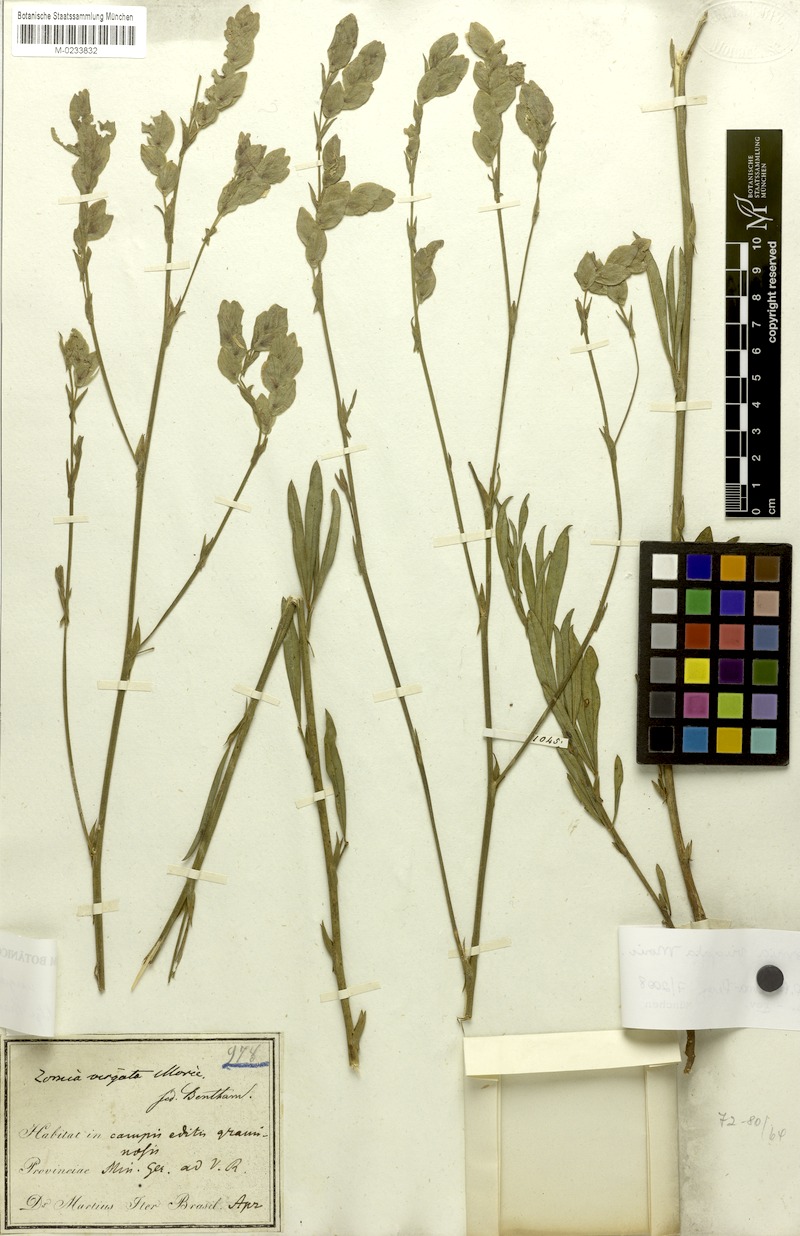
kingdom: Plantae
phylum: Tracheophyta
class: Magnoliopsida
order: Fabales
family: Fabaceae
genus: Zornia
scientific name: Zornia virgata
